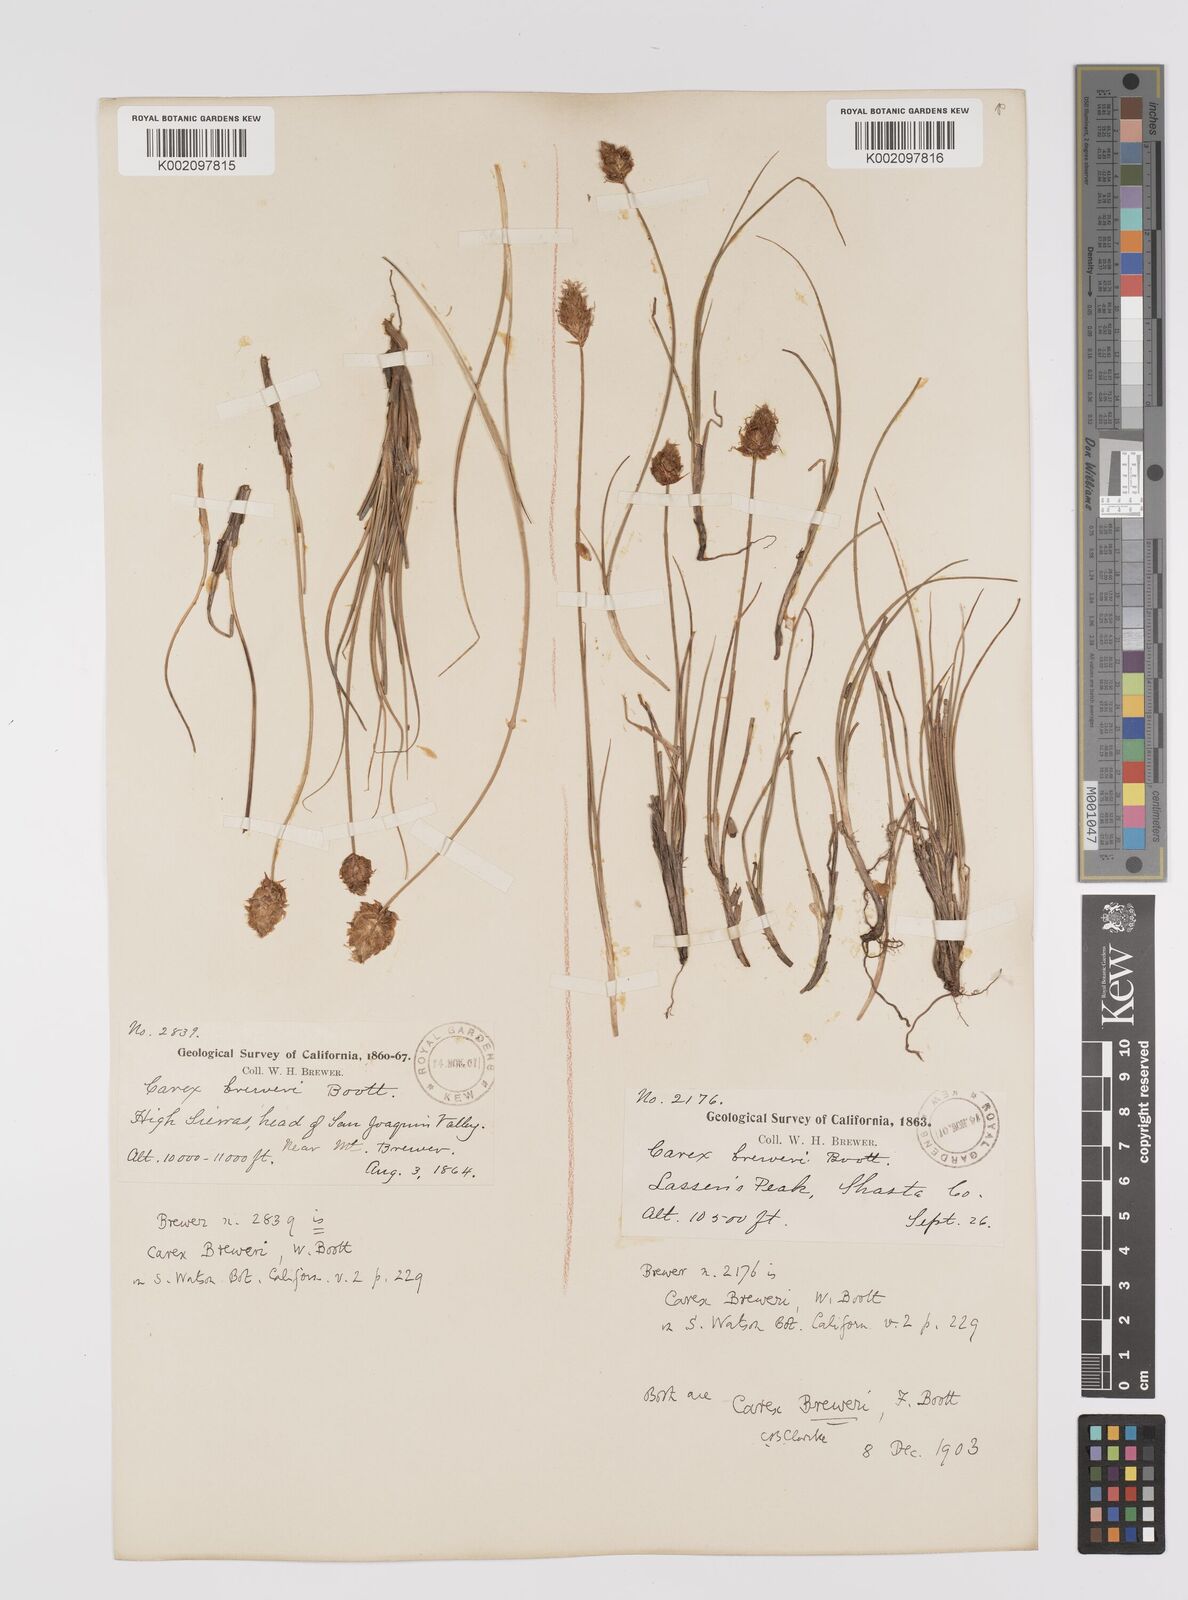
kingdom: Plantae
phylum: Tracheophyta
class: Liliopsida
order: Poales
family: Cyperaceae
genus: Carex
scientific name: Carex breweri
